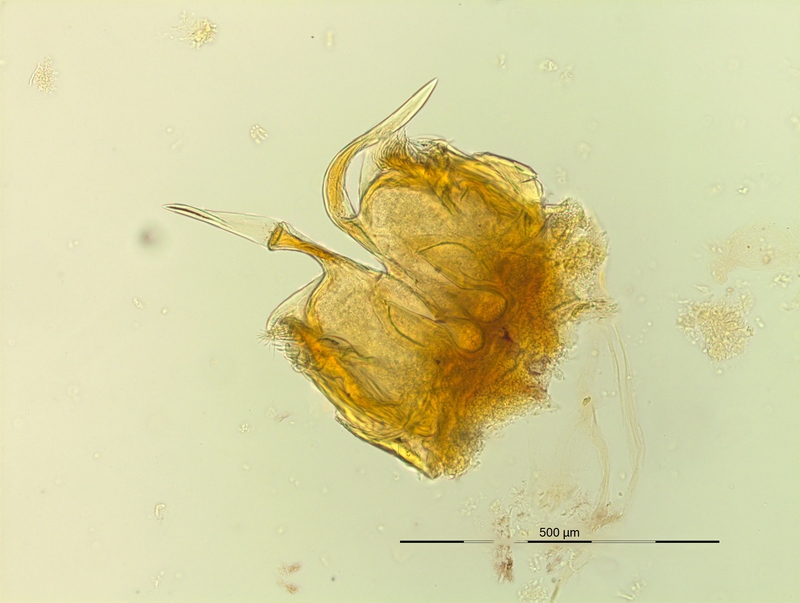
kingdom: Animalia
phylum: Arthropoda
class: Diplopoda
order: Chordeumatida
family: Craspedosomatidae
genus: Pyrgocyphosoma
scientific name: Pyrgocyphosoma longilamellatum
